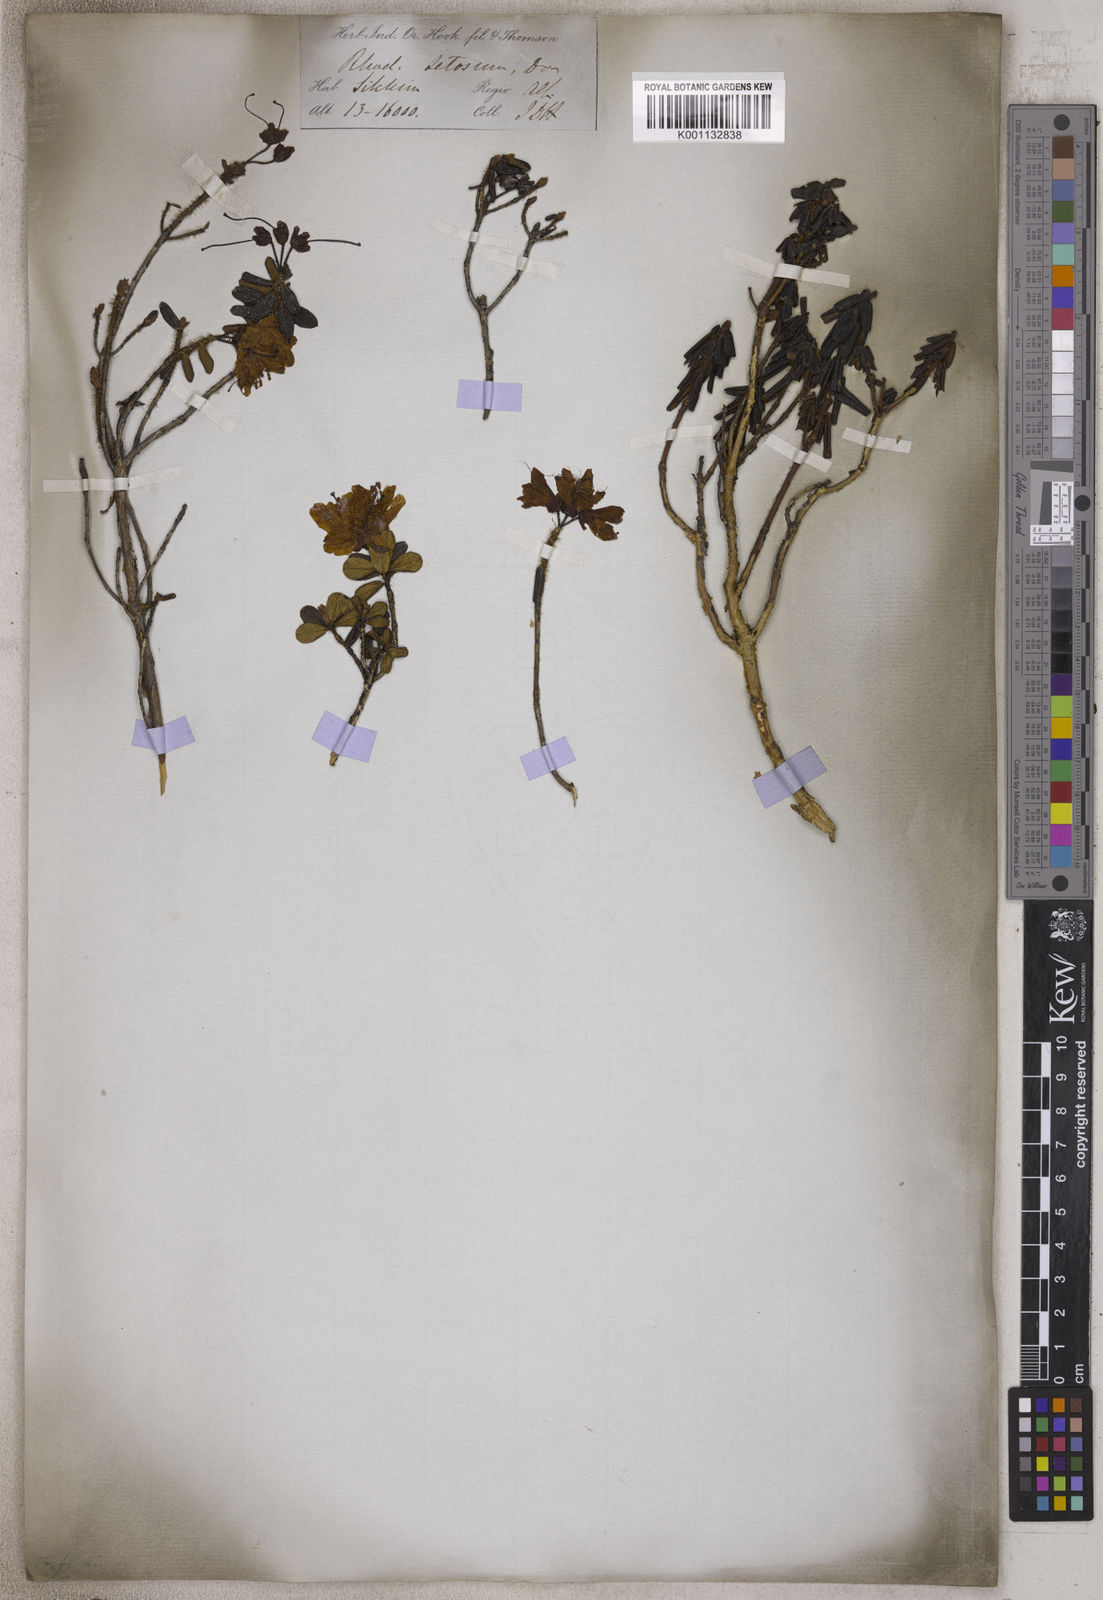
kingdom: Plantae
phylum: Tracheophyta
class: Magnoliopsida
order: Ericales
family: Ericaceae
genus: Rhododendron
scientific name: Rhododendron setosum
